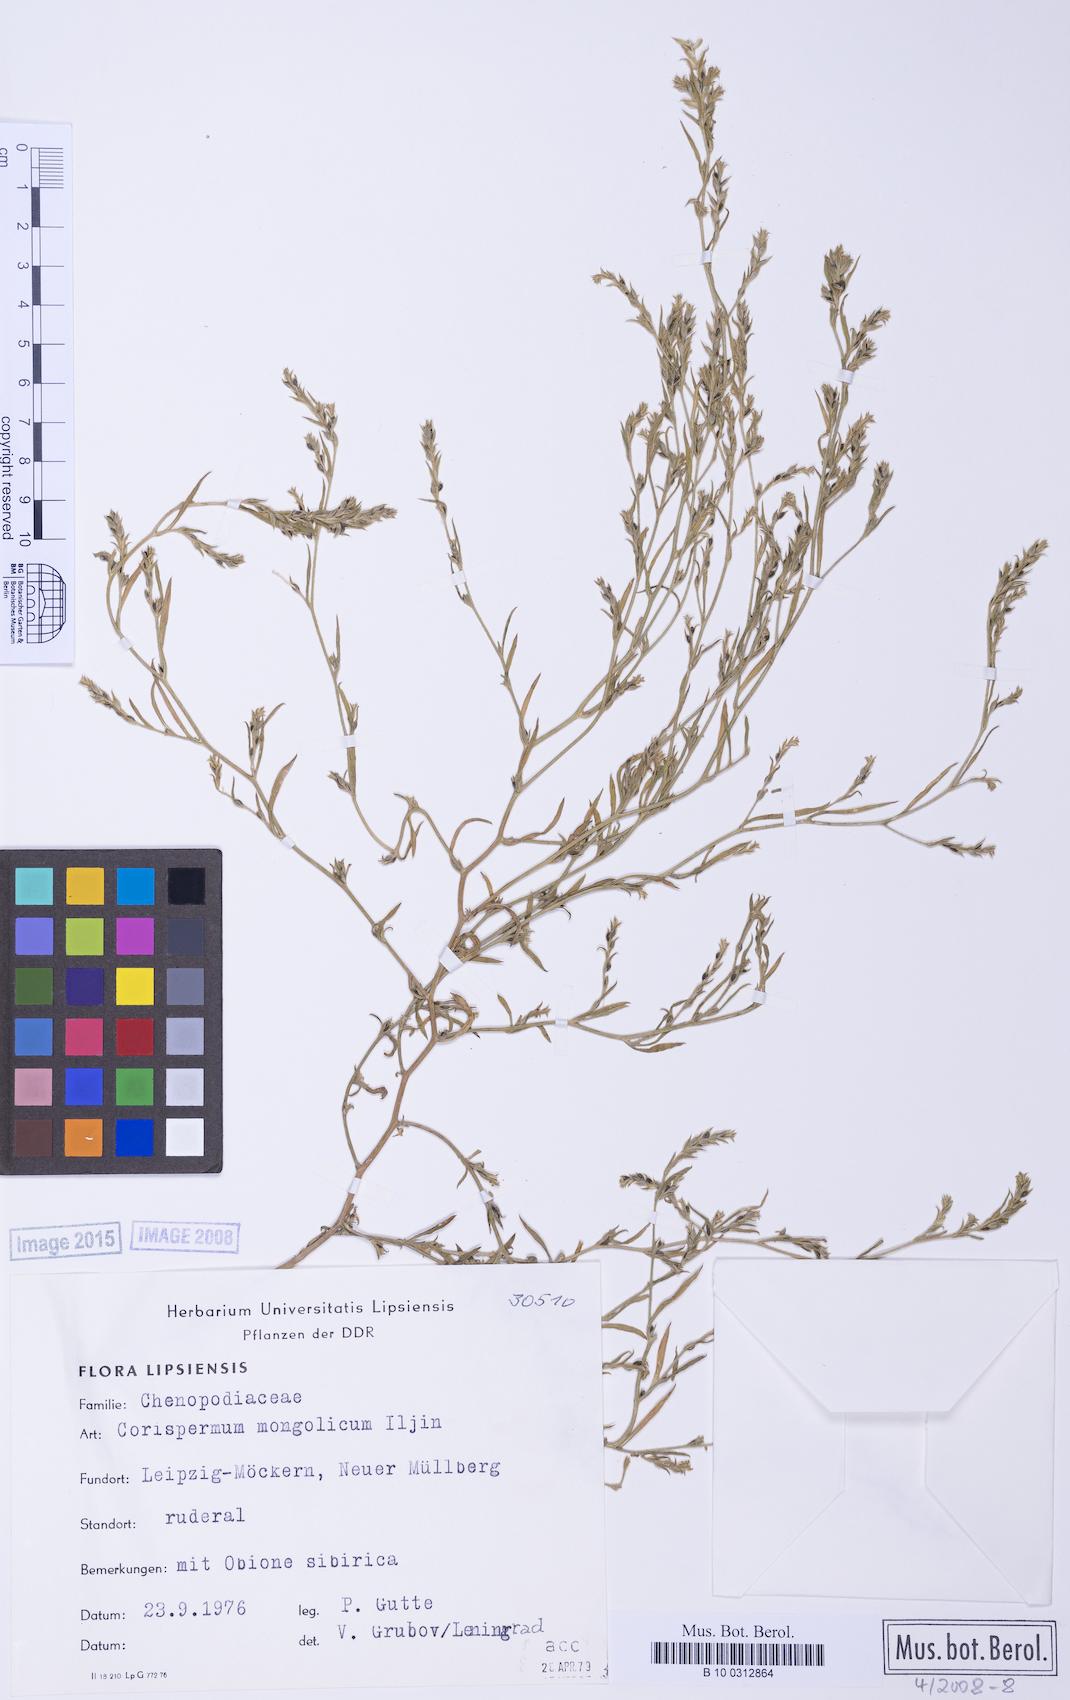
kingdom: Plantae
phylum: Tracheophyta
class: Magnoliopsida
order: Caryophyllales
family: Amaranthaceae
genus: Corispermum
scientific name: Corispermum mongolicum
